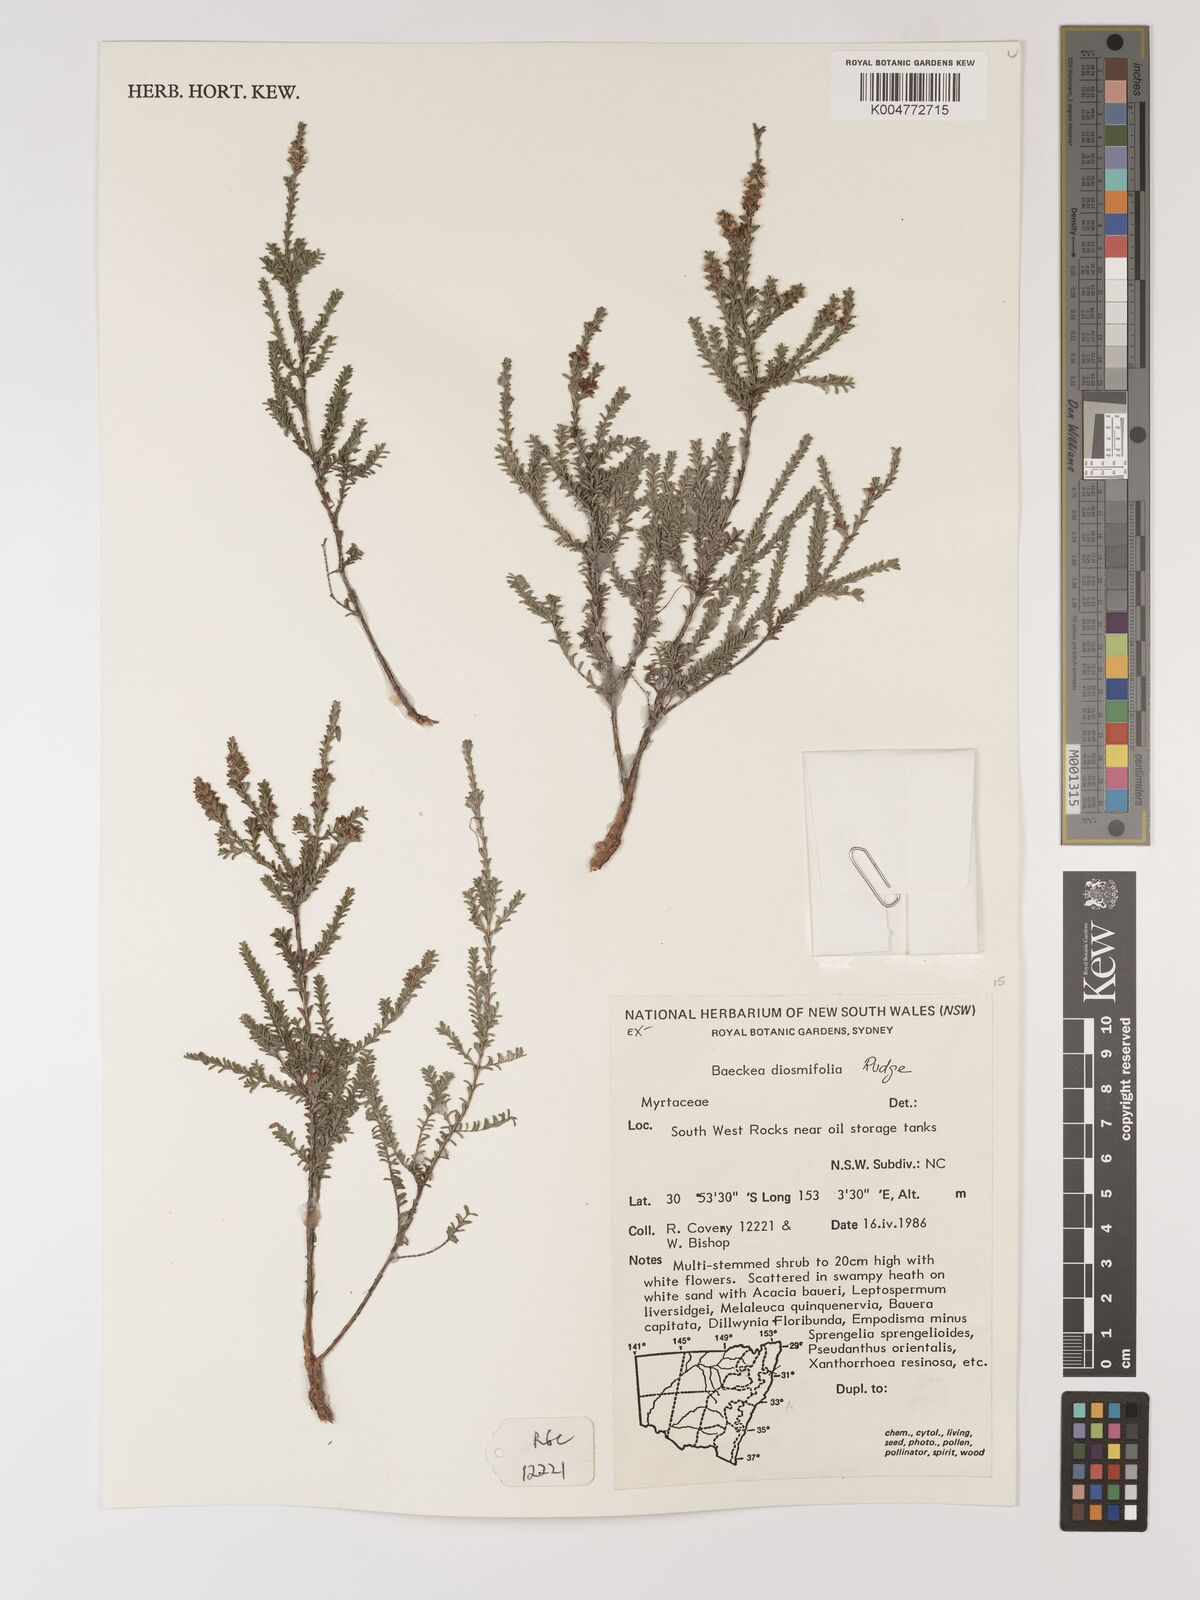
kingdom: Plantae
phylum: Tracheophyta
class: Magnoliopsida
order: Myrtales
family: Myrtaceae
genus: Baeckea
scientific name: Baeckea diosmifolia
